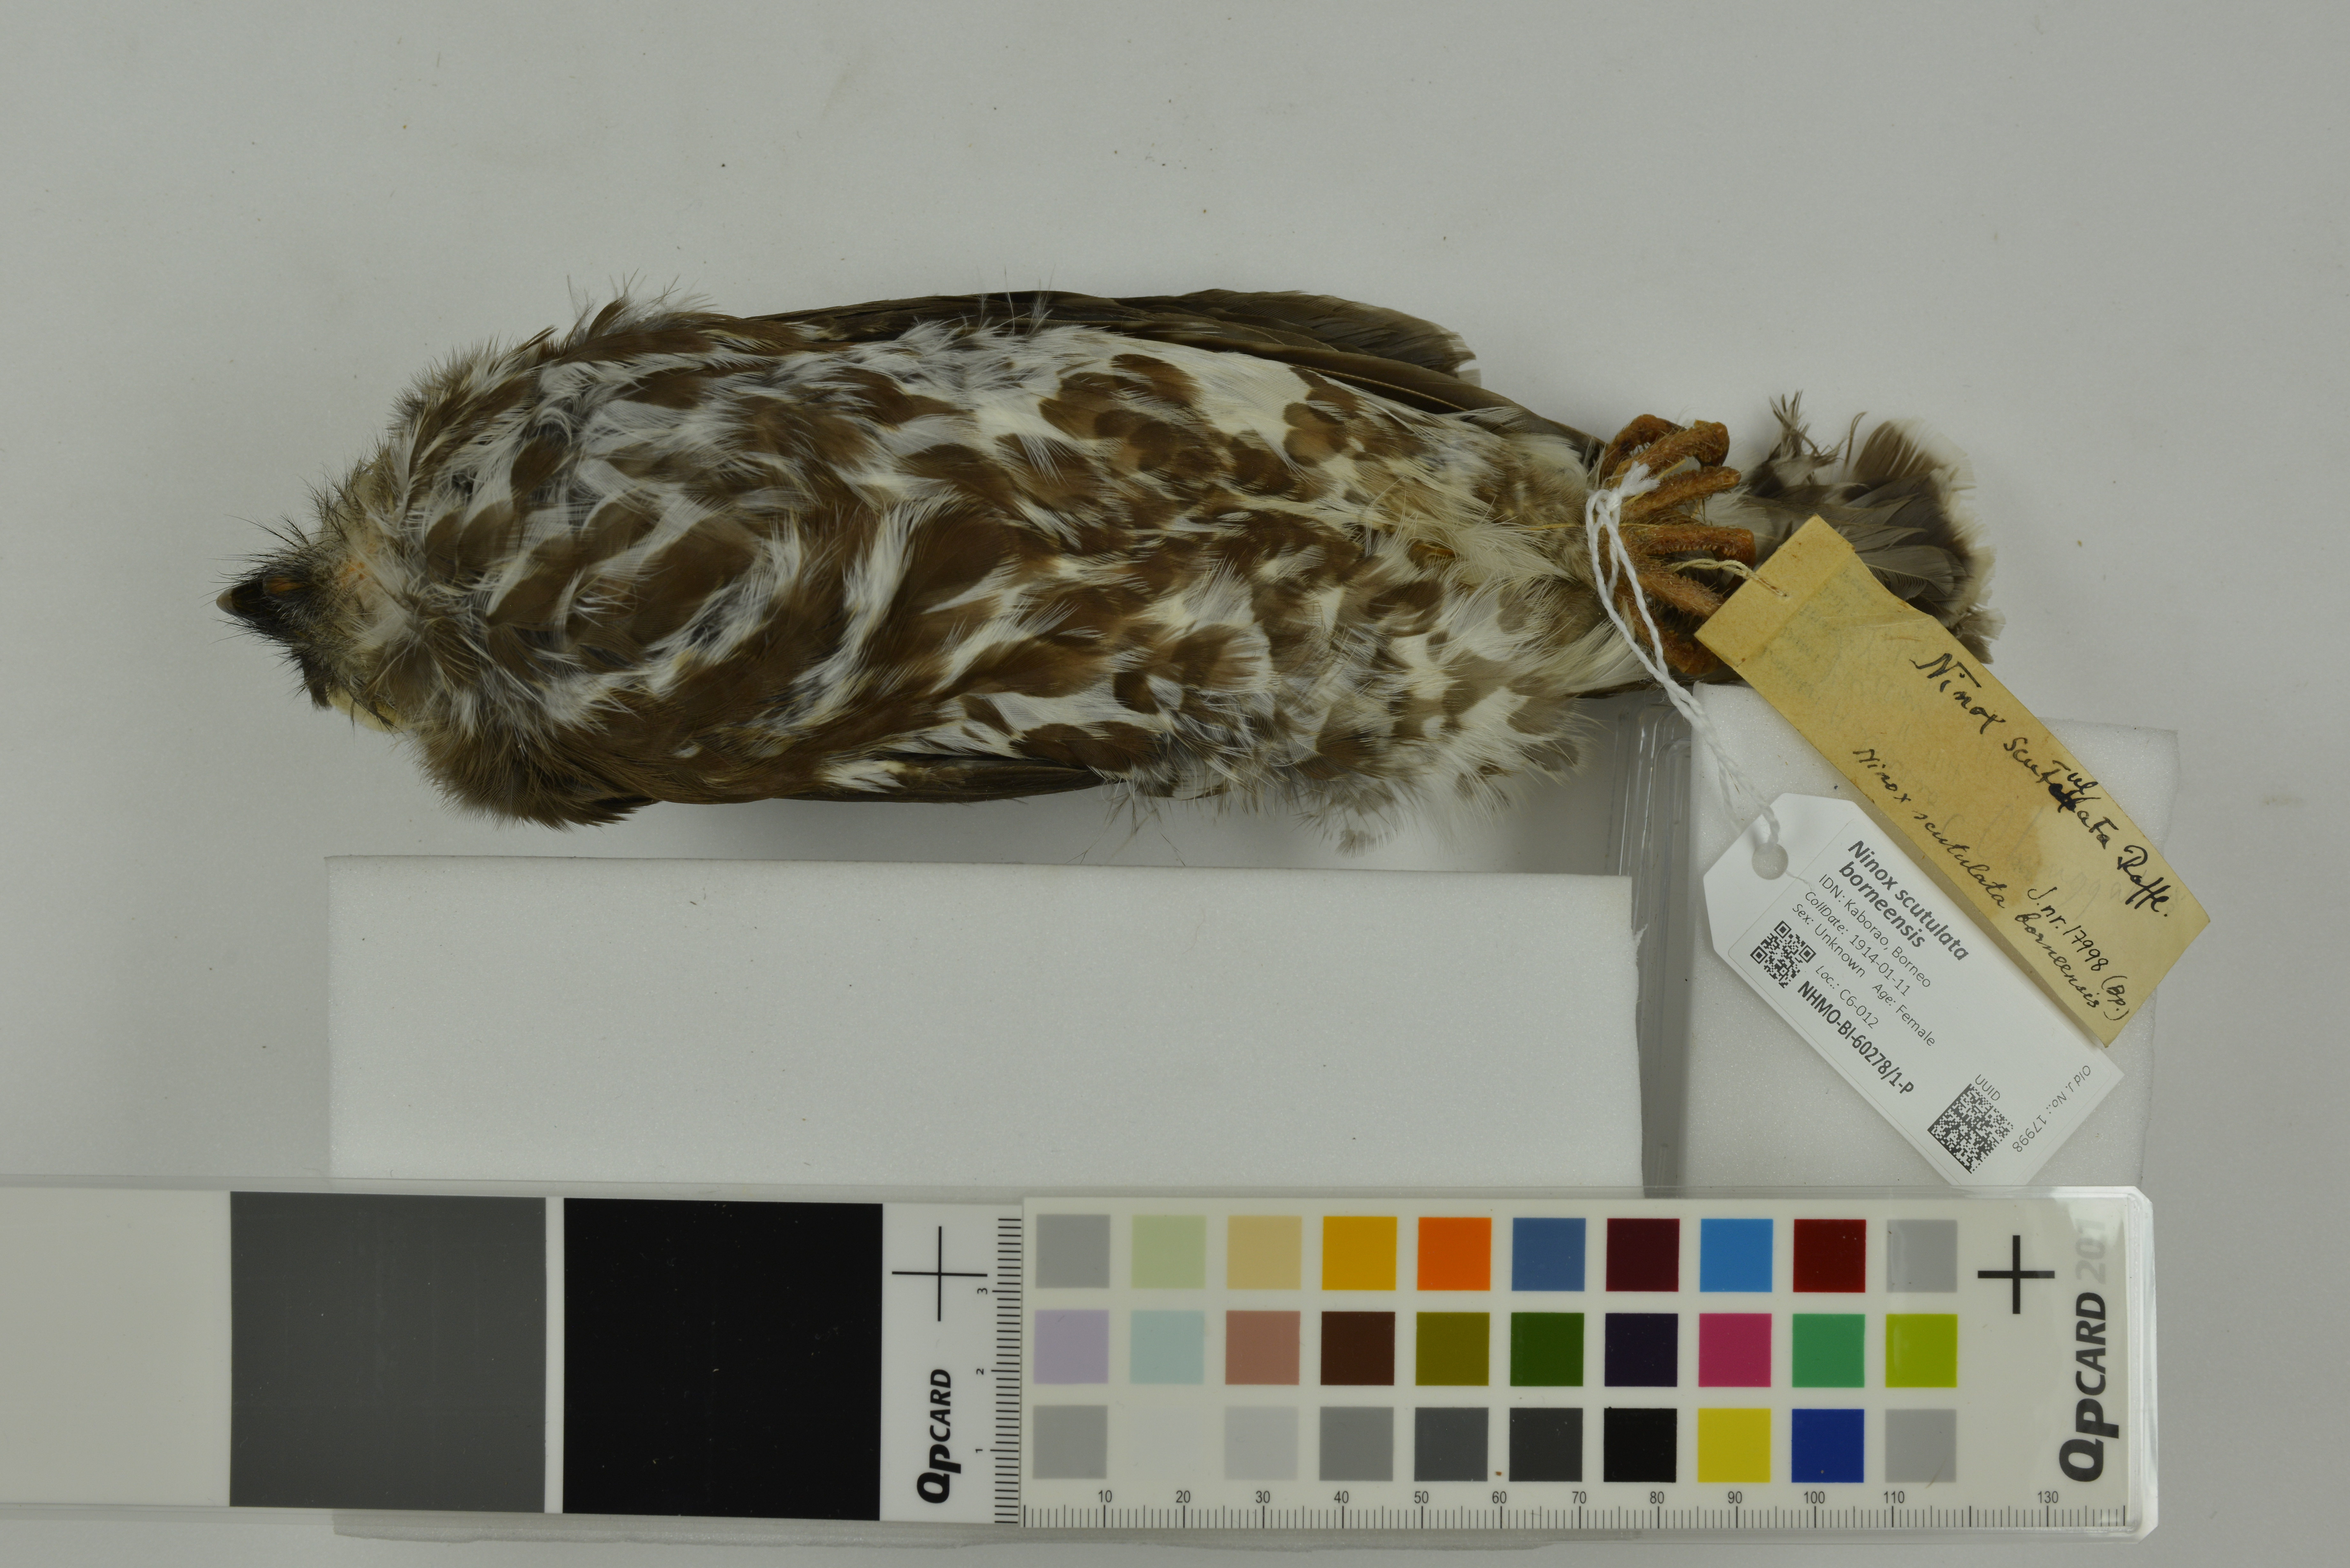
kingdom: Animalia
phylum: Chordata
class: Aves
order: Strigiformes
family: Strigidae
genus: Ninox
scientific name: Ninox scutulata
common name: Brown hawk-owl
